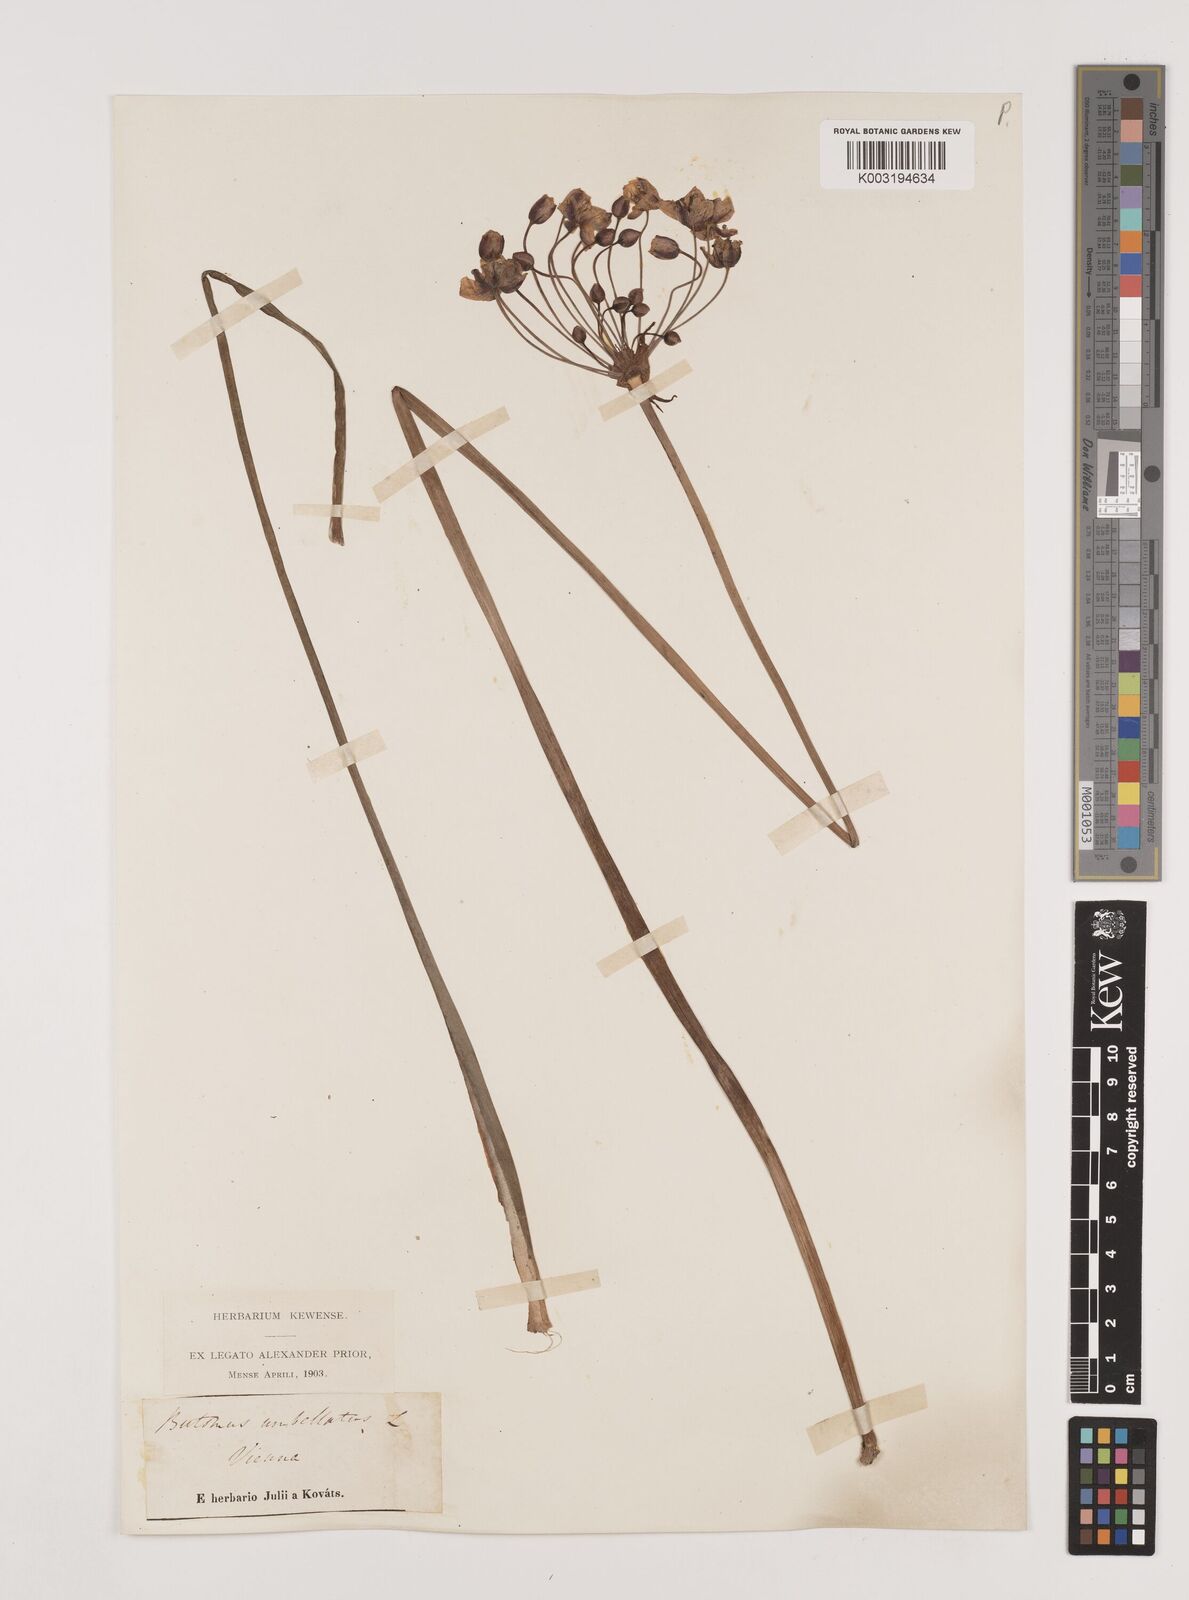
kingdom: Plantae
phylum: Tracheophyta
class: Liliopsida
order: Alismatales
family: Butomaceae
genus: Butomus
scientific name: Butomus umbellatus
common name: Flowering-rush
